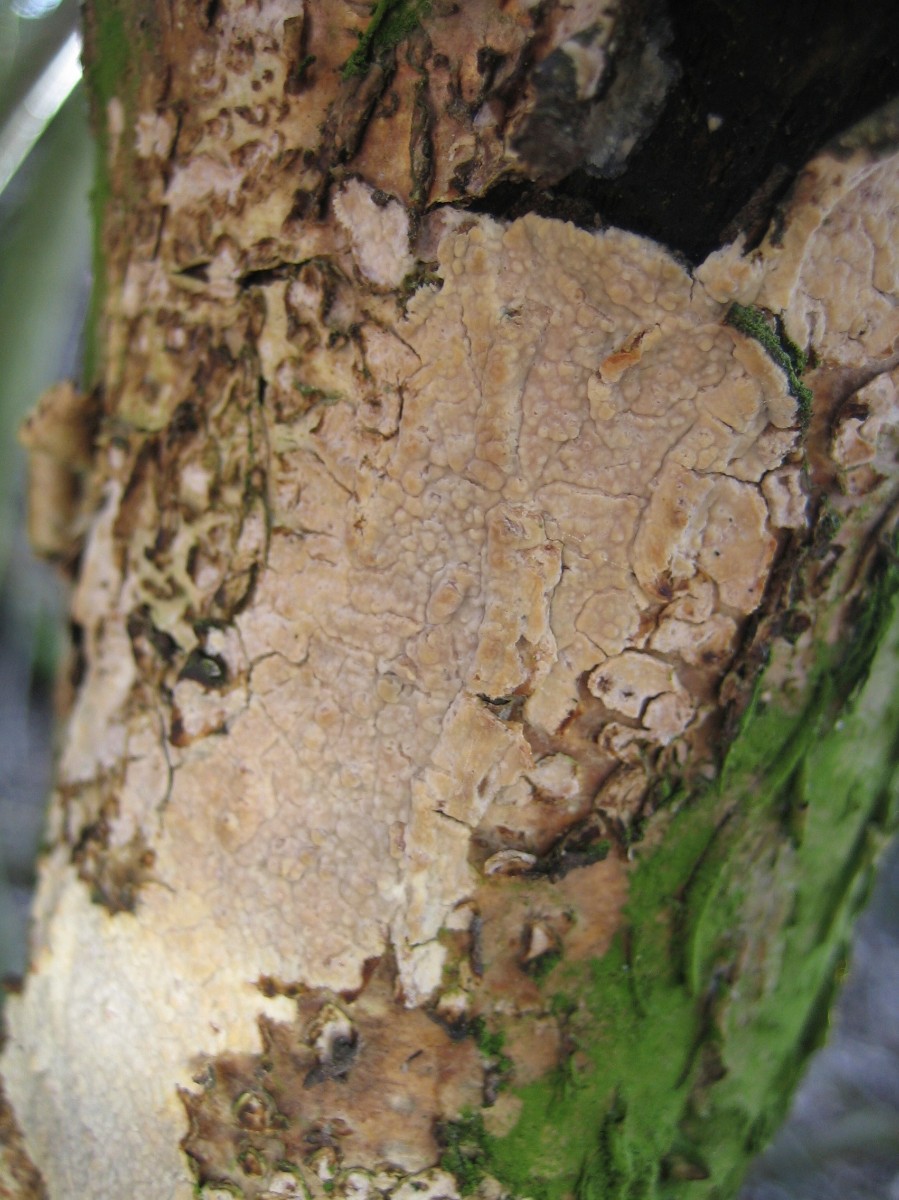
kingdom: Fungi
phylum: Basidiomycota
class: Agaricomycetes
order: Corticiales
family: Corticiaceae
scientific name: Corticiaceae
